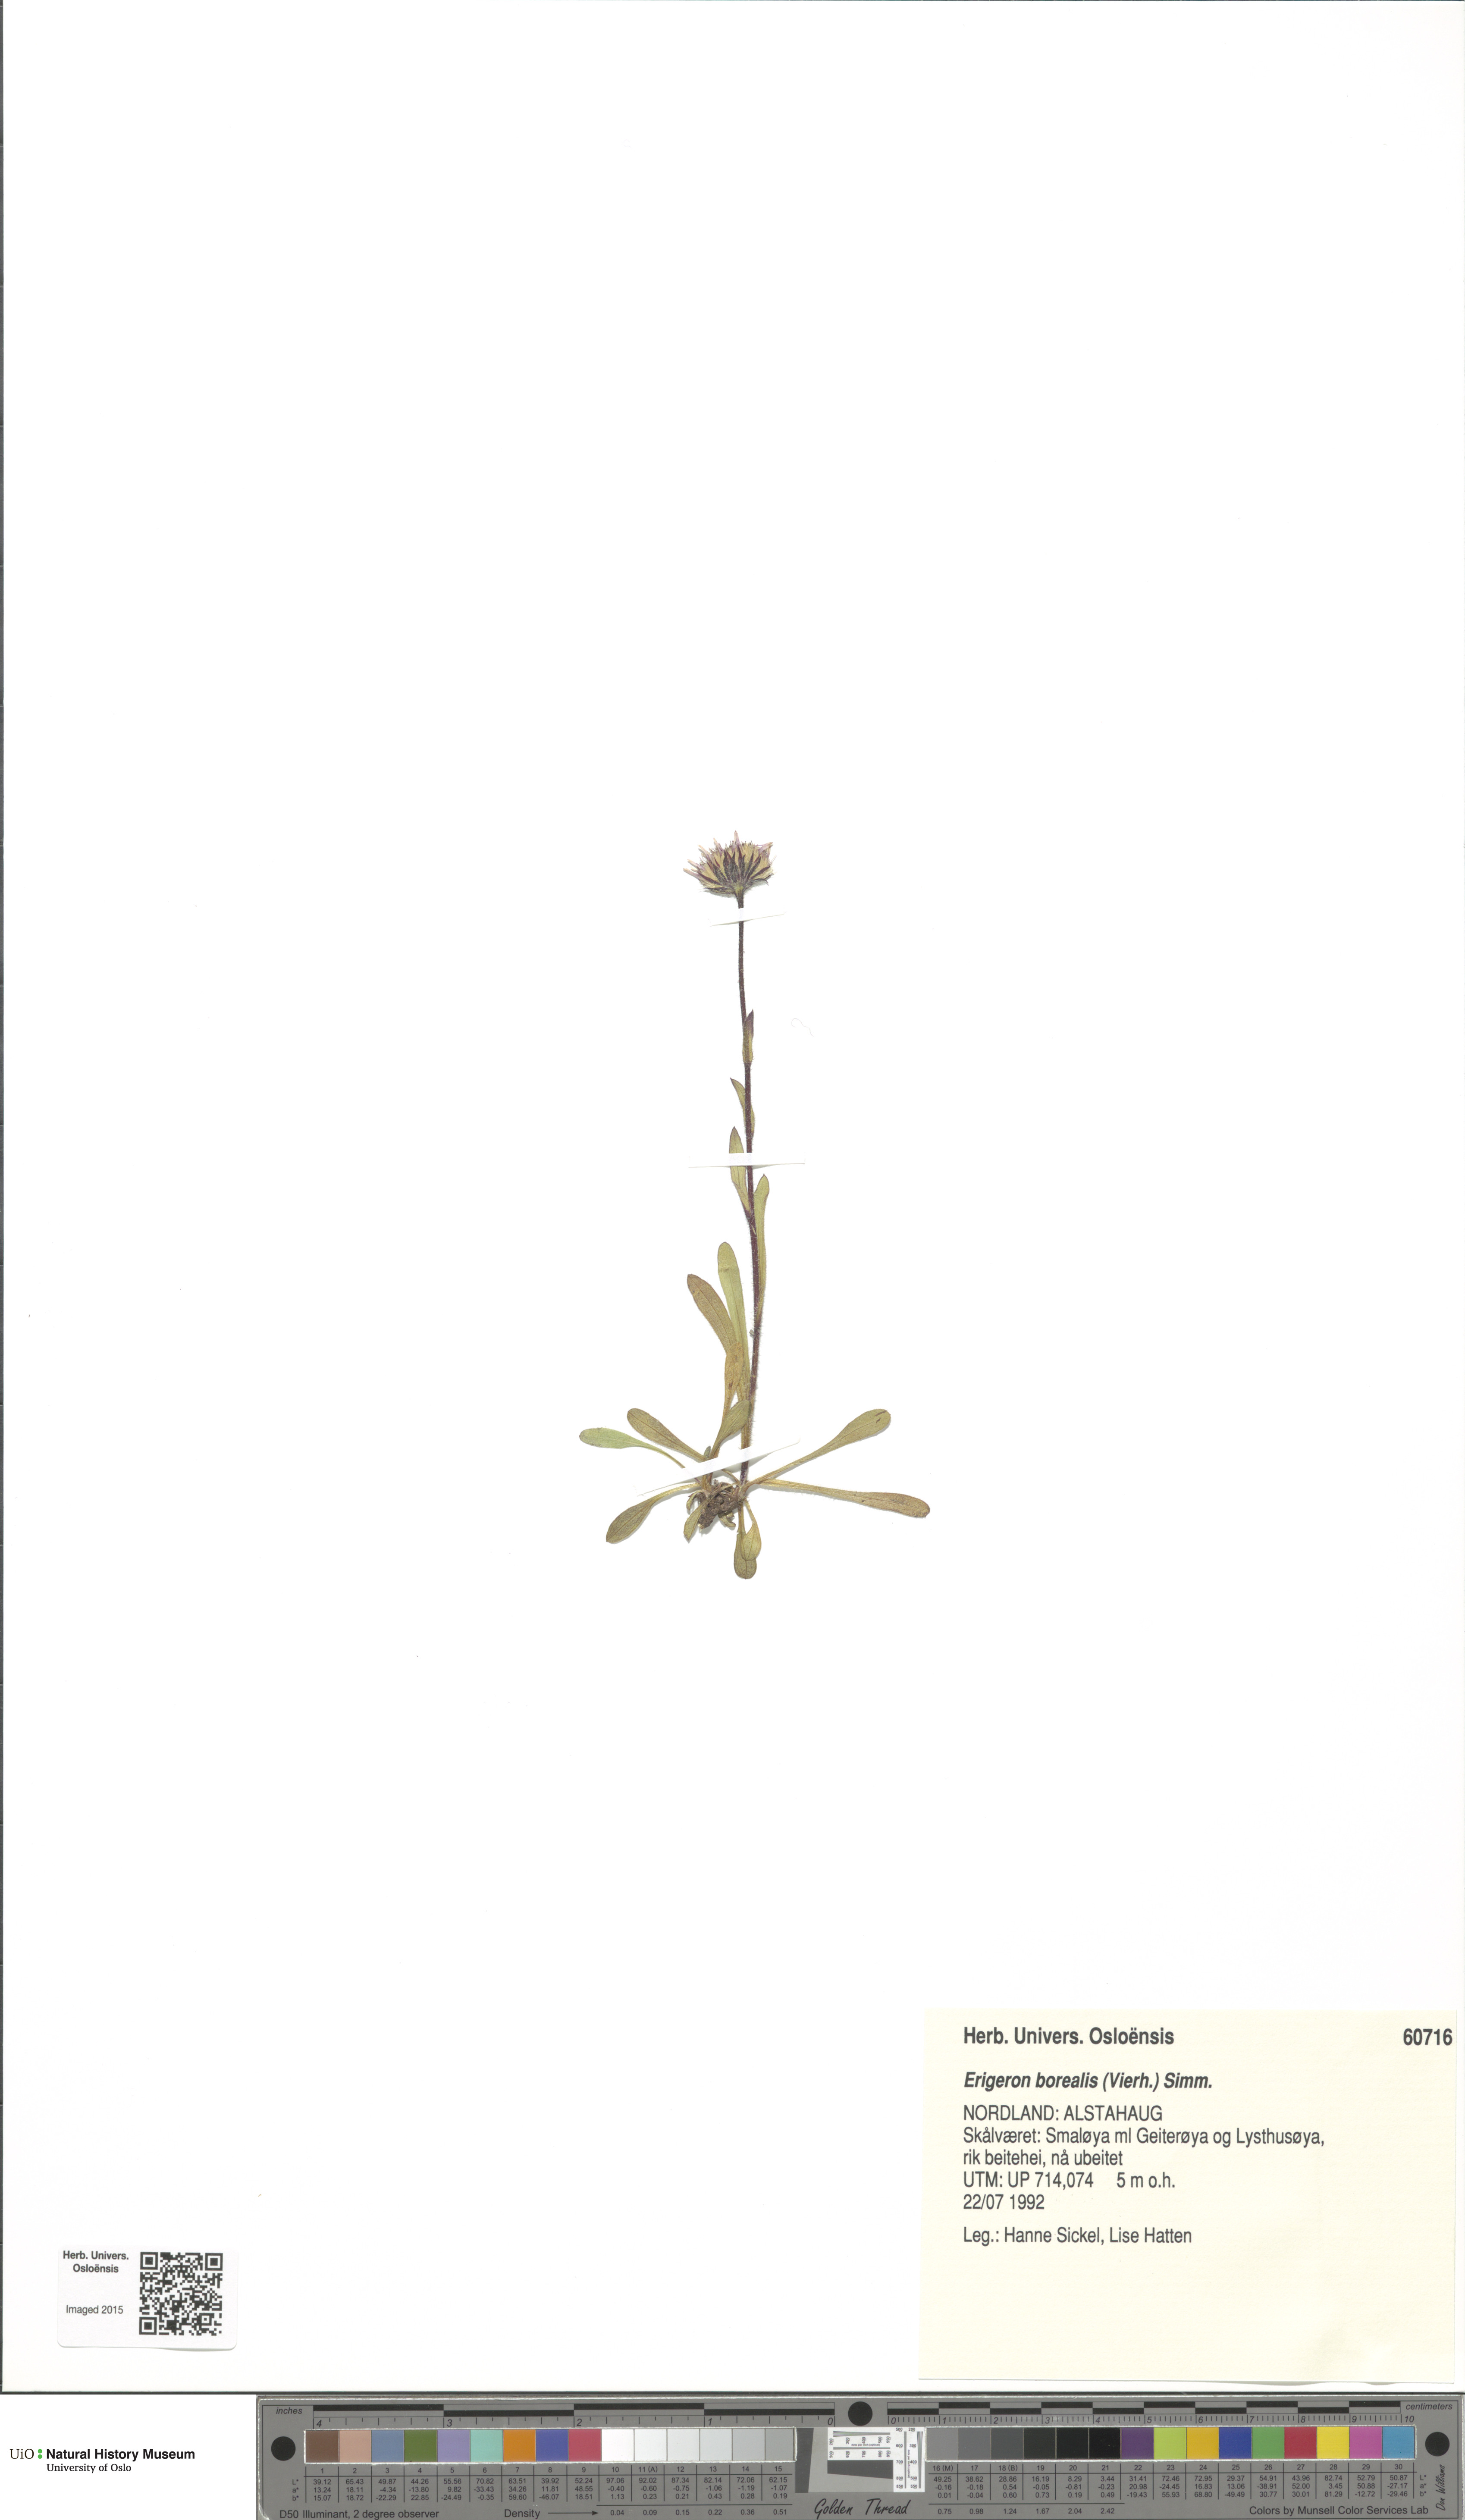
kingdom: Plantae
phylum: Tracheophyta
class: Magnoliopsida
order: Asterales
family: Asteraceae
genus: Erigeron
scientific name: Erigeron borealis
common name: Alpine fleabane
